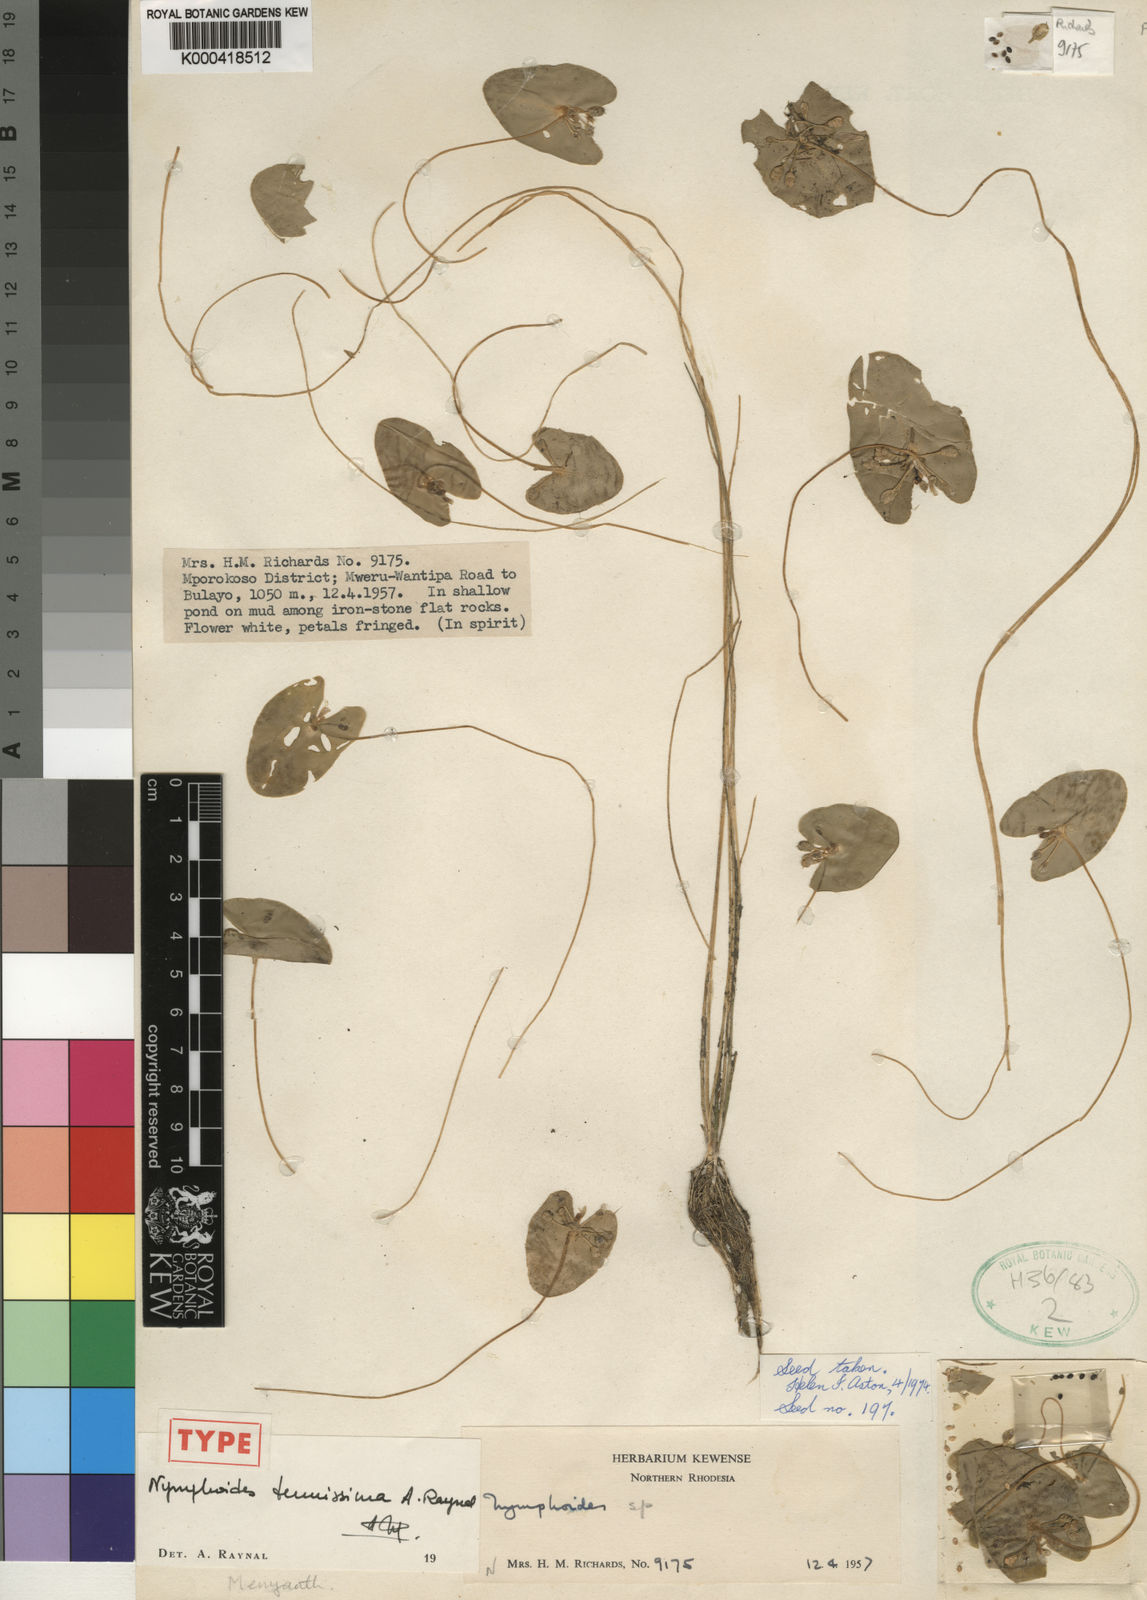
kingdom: Plantae
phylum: Tracheophyta
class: Magnoliopsida
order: Asterales
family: Menyanthaceae
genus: Nymphoides
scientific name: Nymphoides tenuissima
